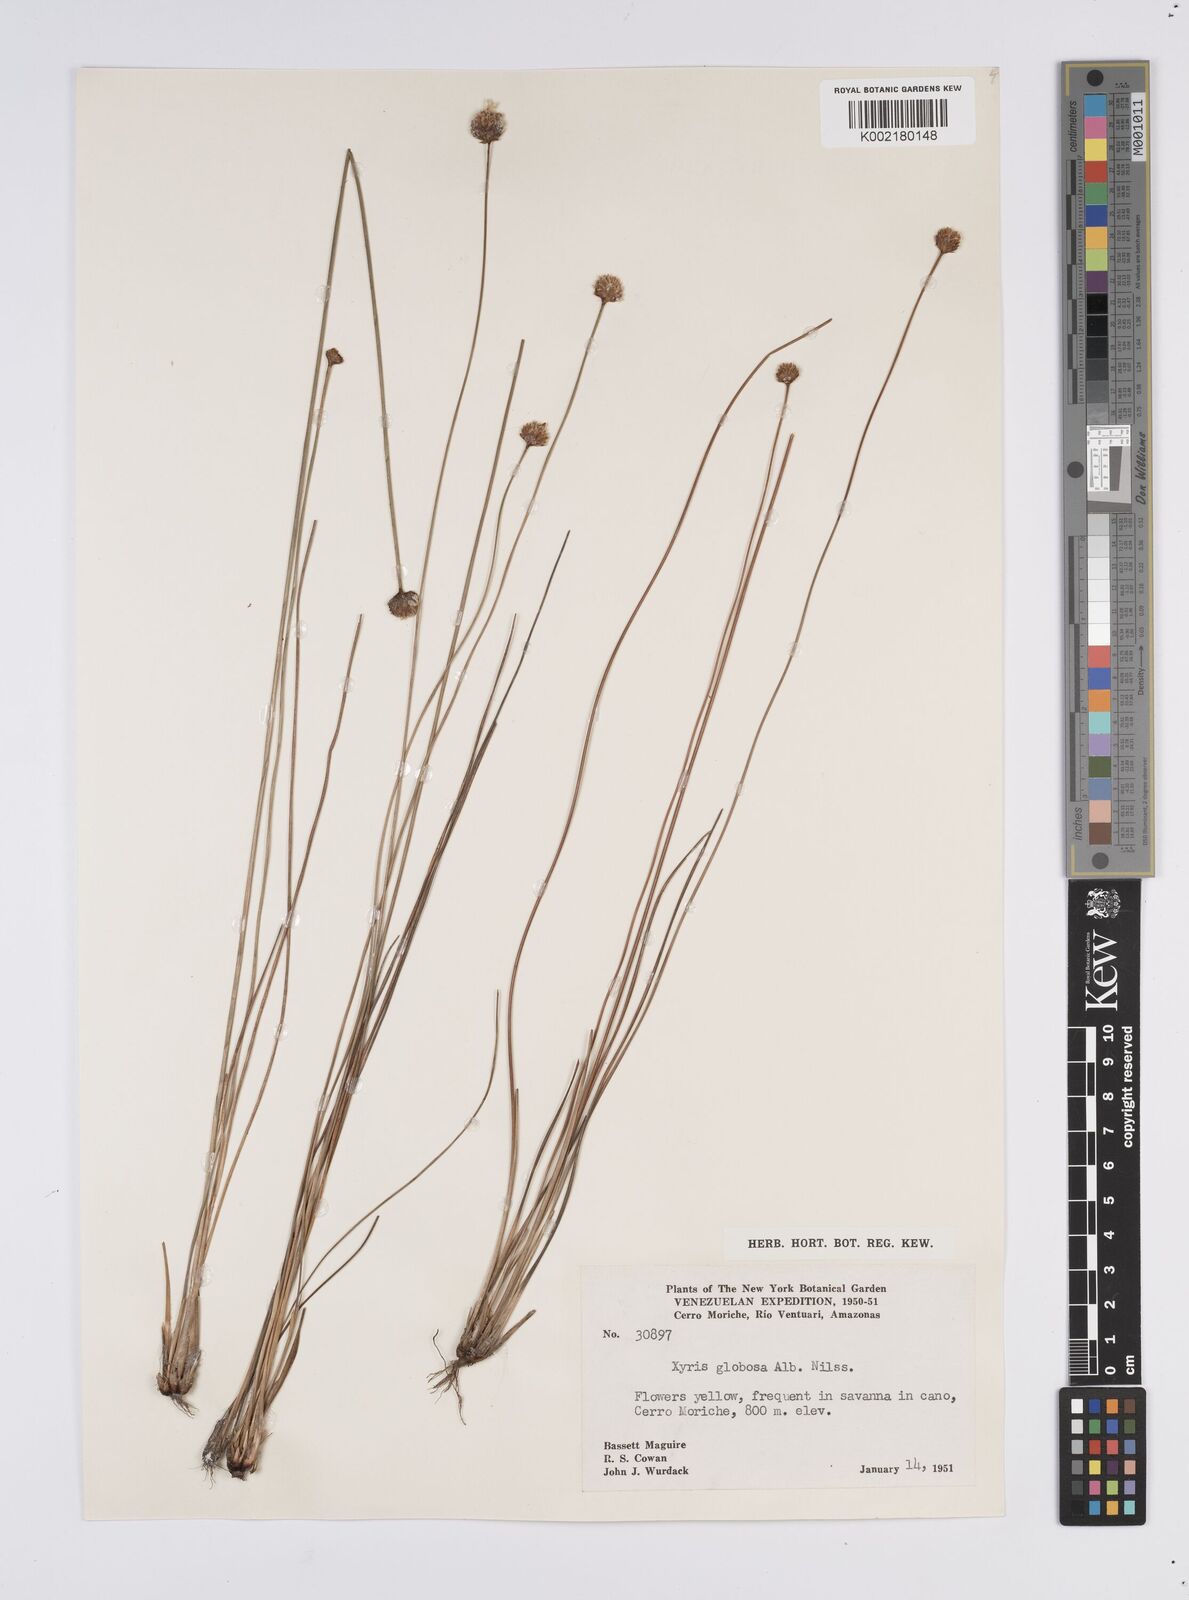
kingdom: Plantae
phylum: Tracheophyta
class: Liliopsida
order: Poales
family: Xyridaceae
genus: Xyris
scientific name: Xyris globosa
